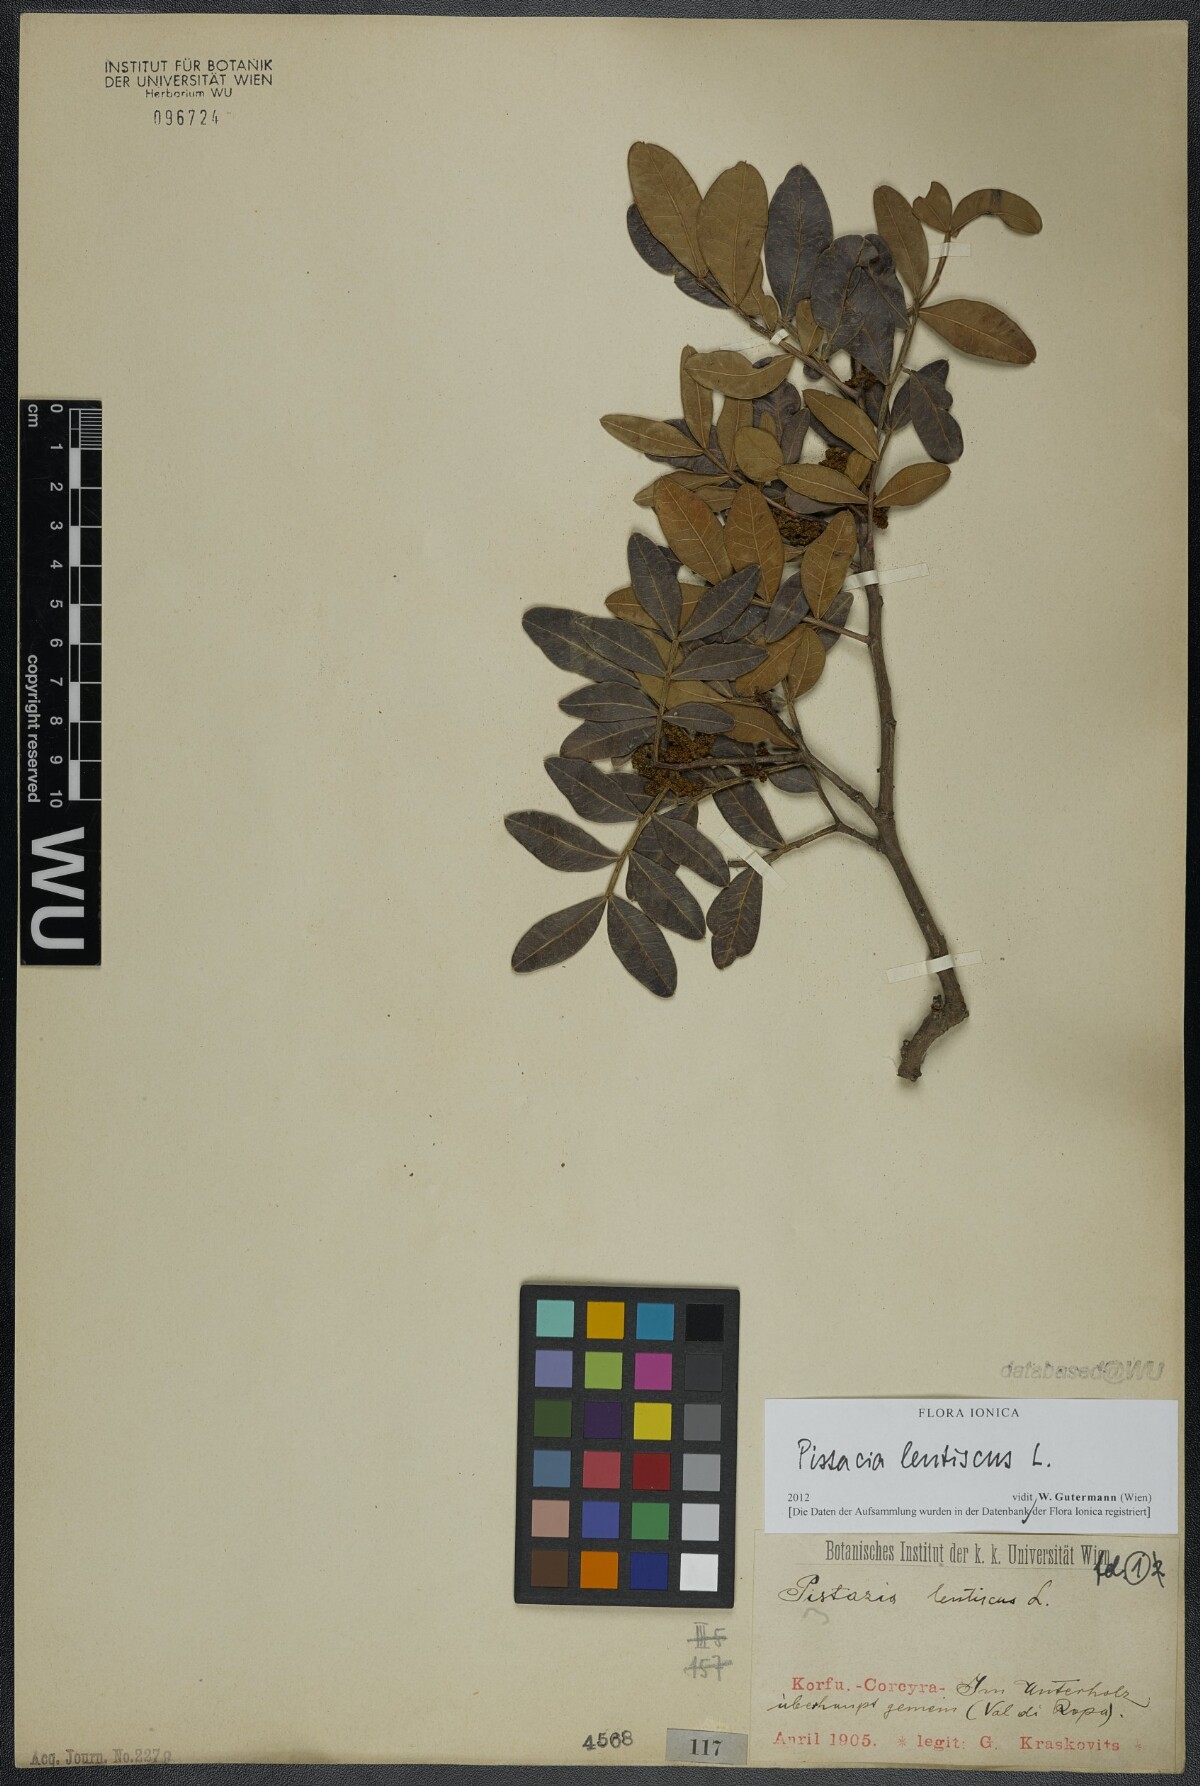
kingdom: Plantae
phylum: Tracheophyta
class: Magnoliopsida
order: Sapindales
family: Anacardiaceae
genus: Pistacia
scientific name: Pistacia lentiscus
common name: Lentisk
